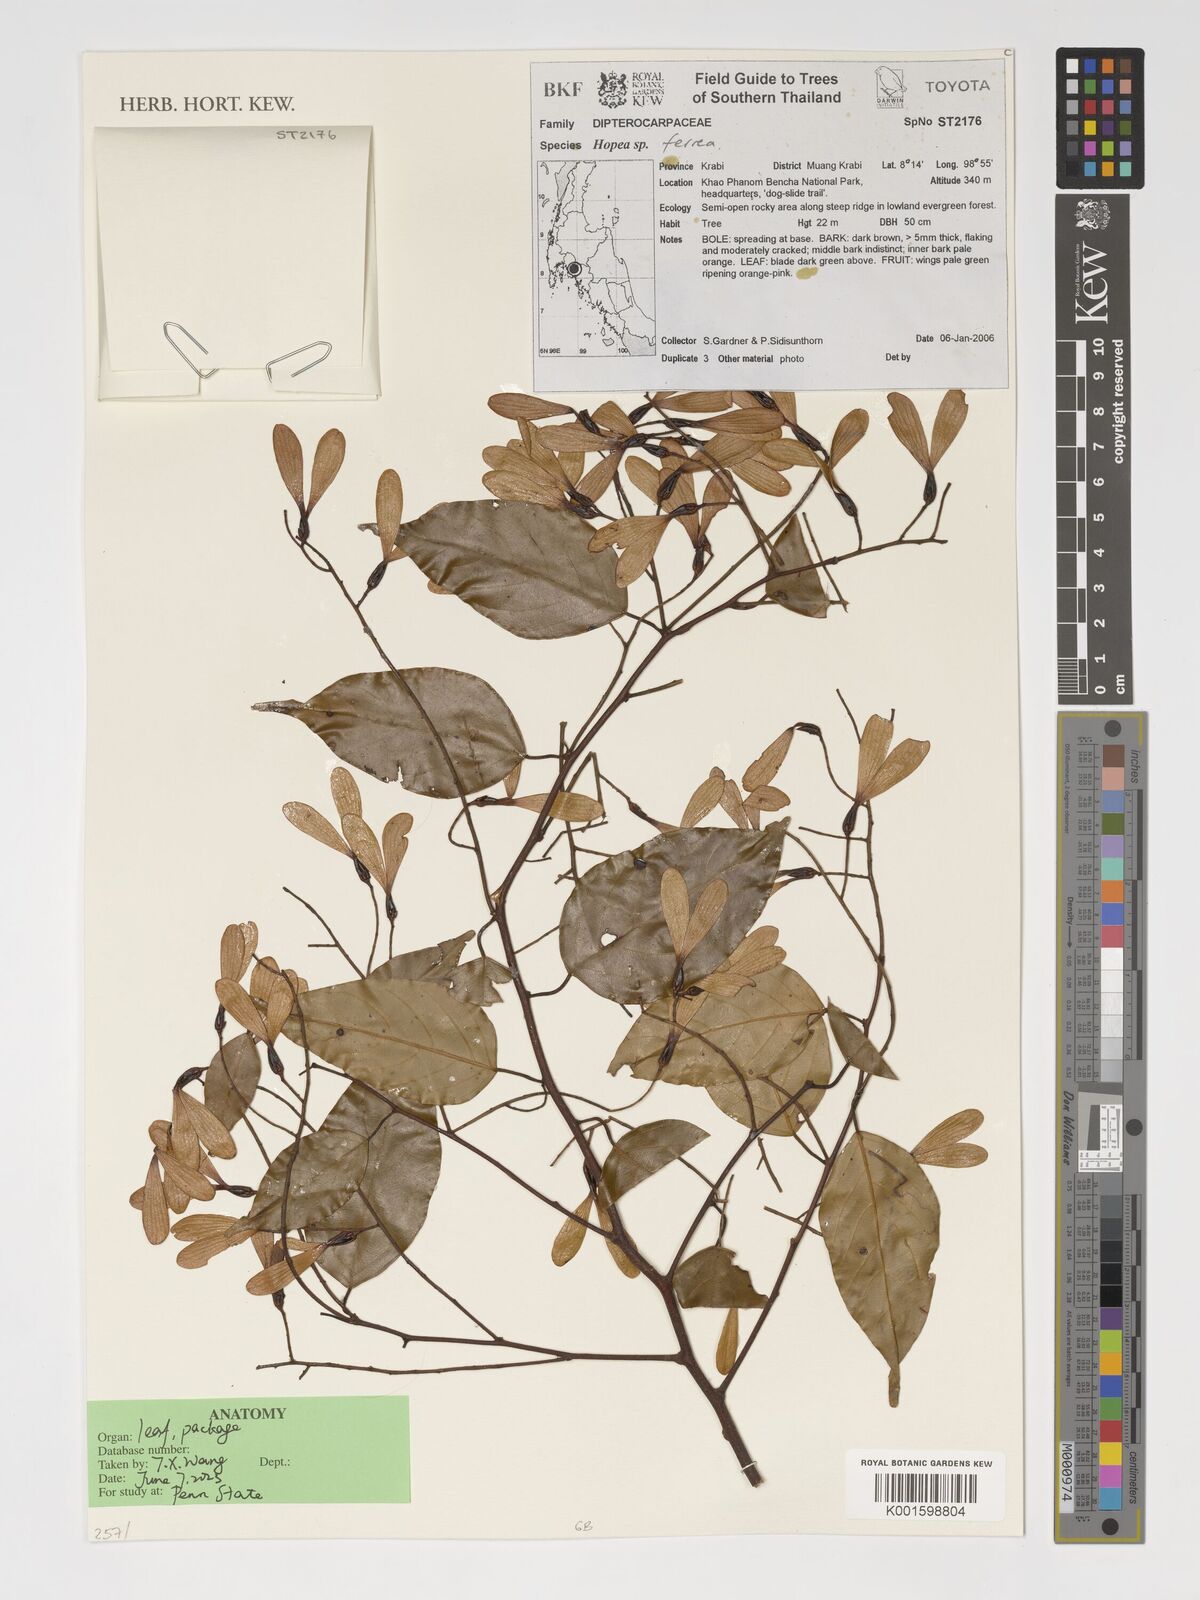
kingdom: Plantae
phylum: Tracheophyta
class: Magnoliopsida
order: Malvales
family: Dipterocarpaceae
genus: Hopea
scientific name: Hopea ferrea
